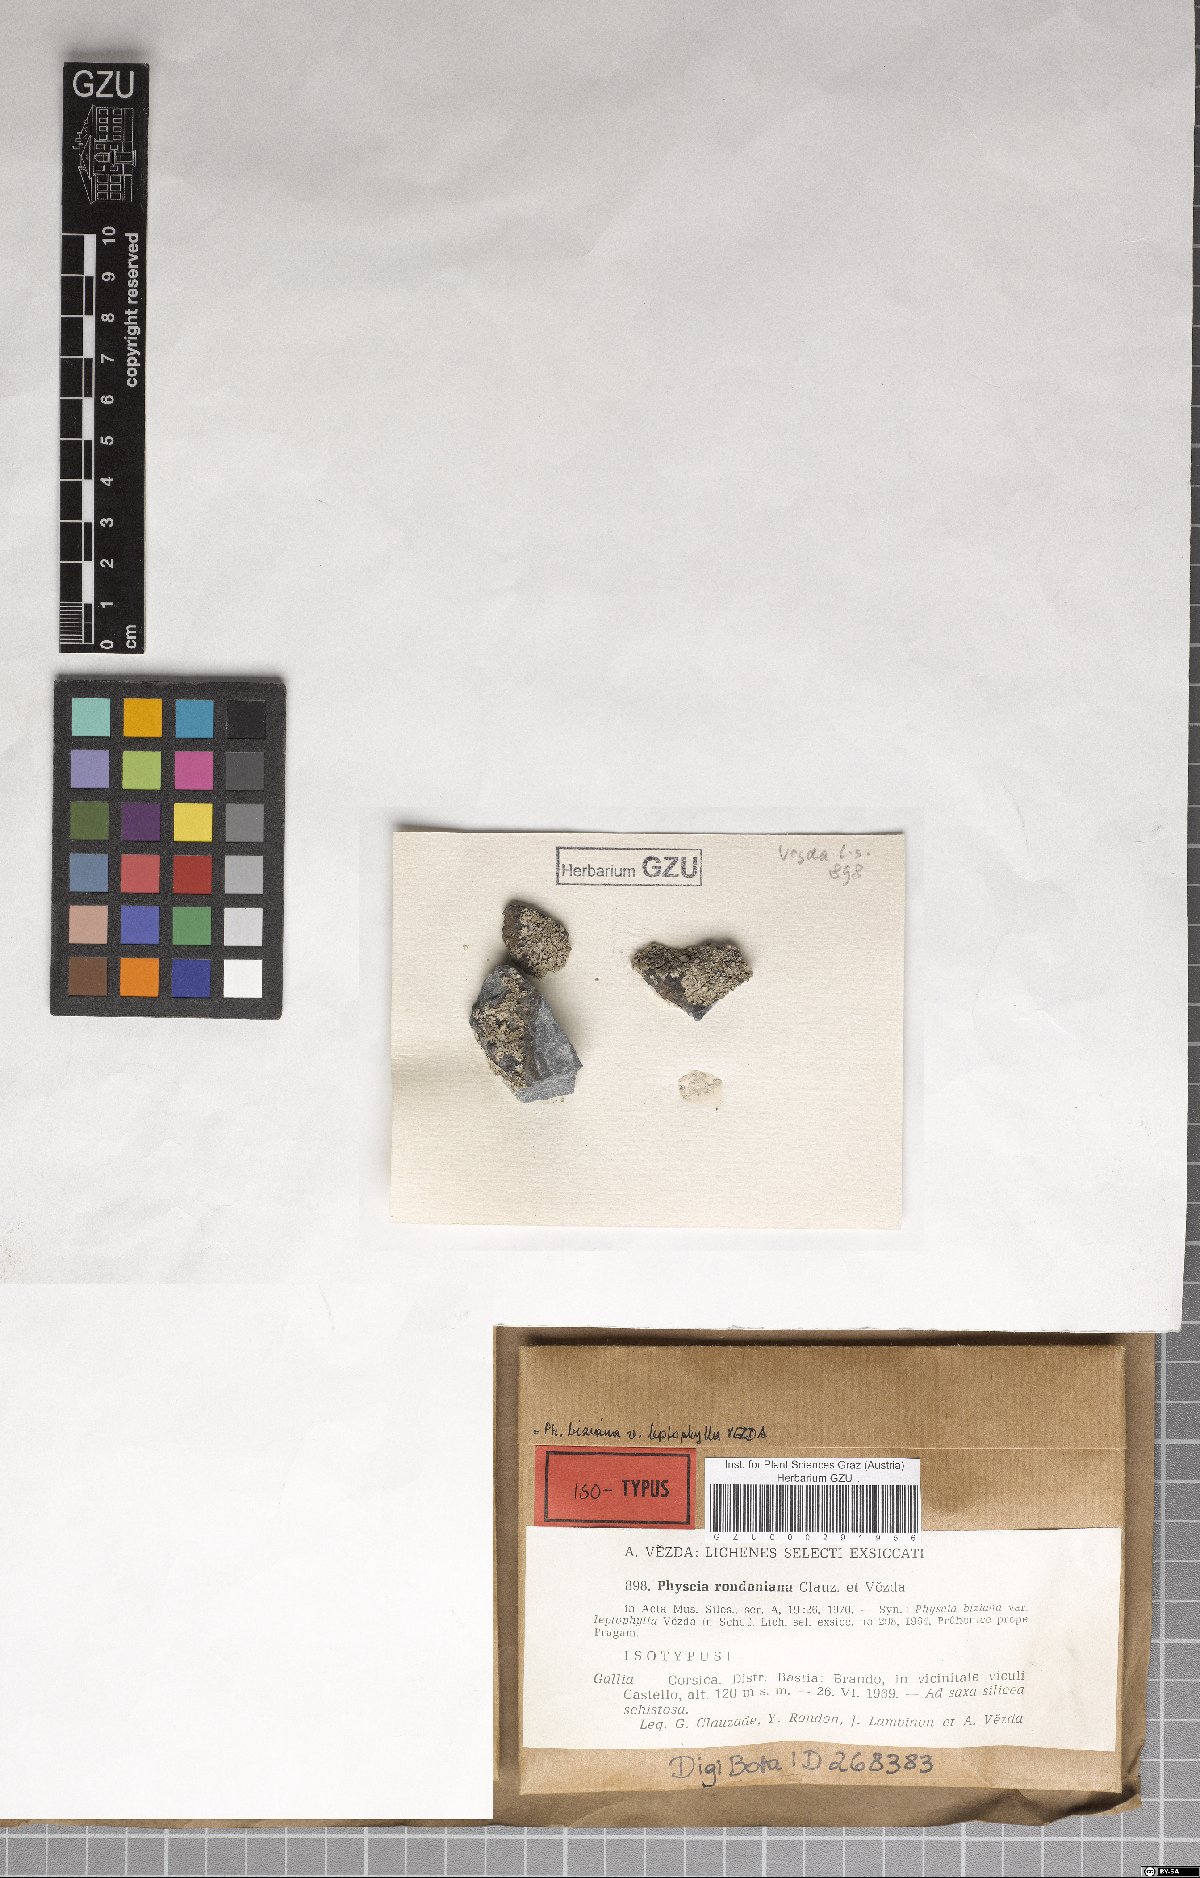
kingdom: Fungi
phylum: Ascomycota
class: Lecanoromycetes
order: Caliciales
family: Physciaceae
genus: Physcia
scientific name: Physcia biziana
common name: Frosted rosette lichen
